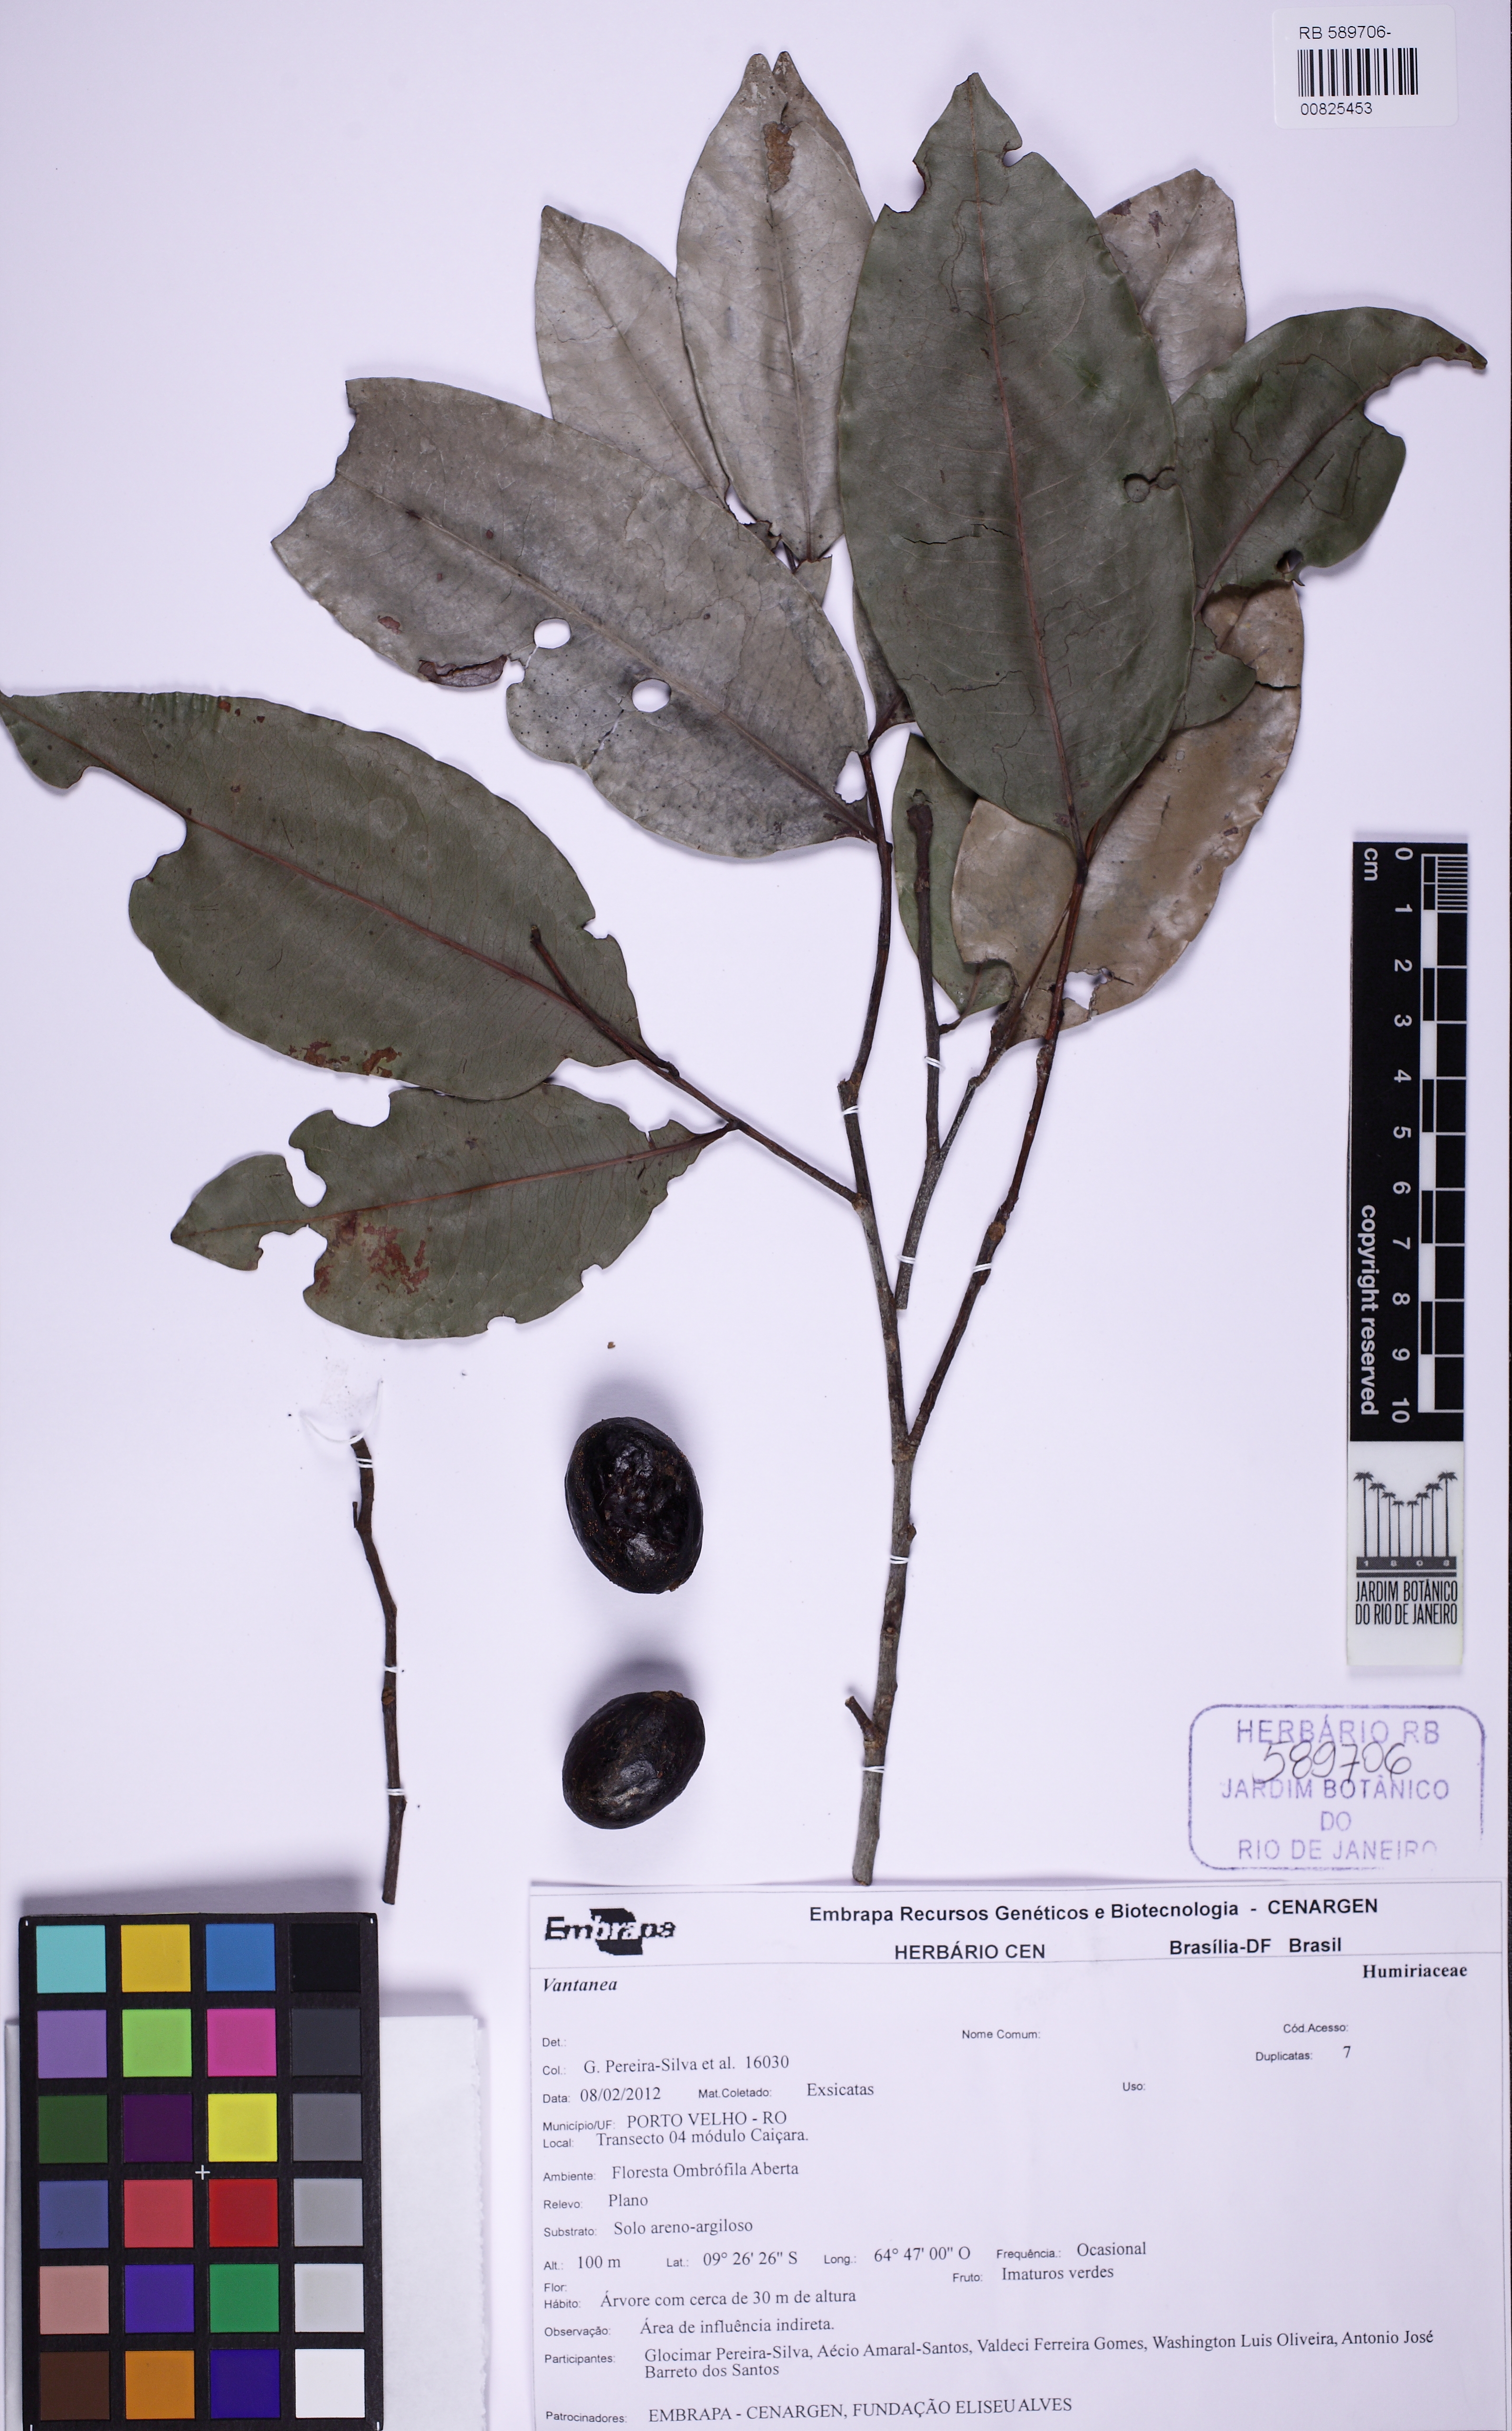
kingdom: Plantae
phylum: Tracheophyta
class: Magnoliopsida
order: Malpighiales
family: Humiriaceae
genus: Vantanea
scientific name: Vantanea
